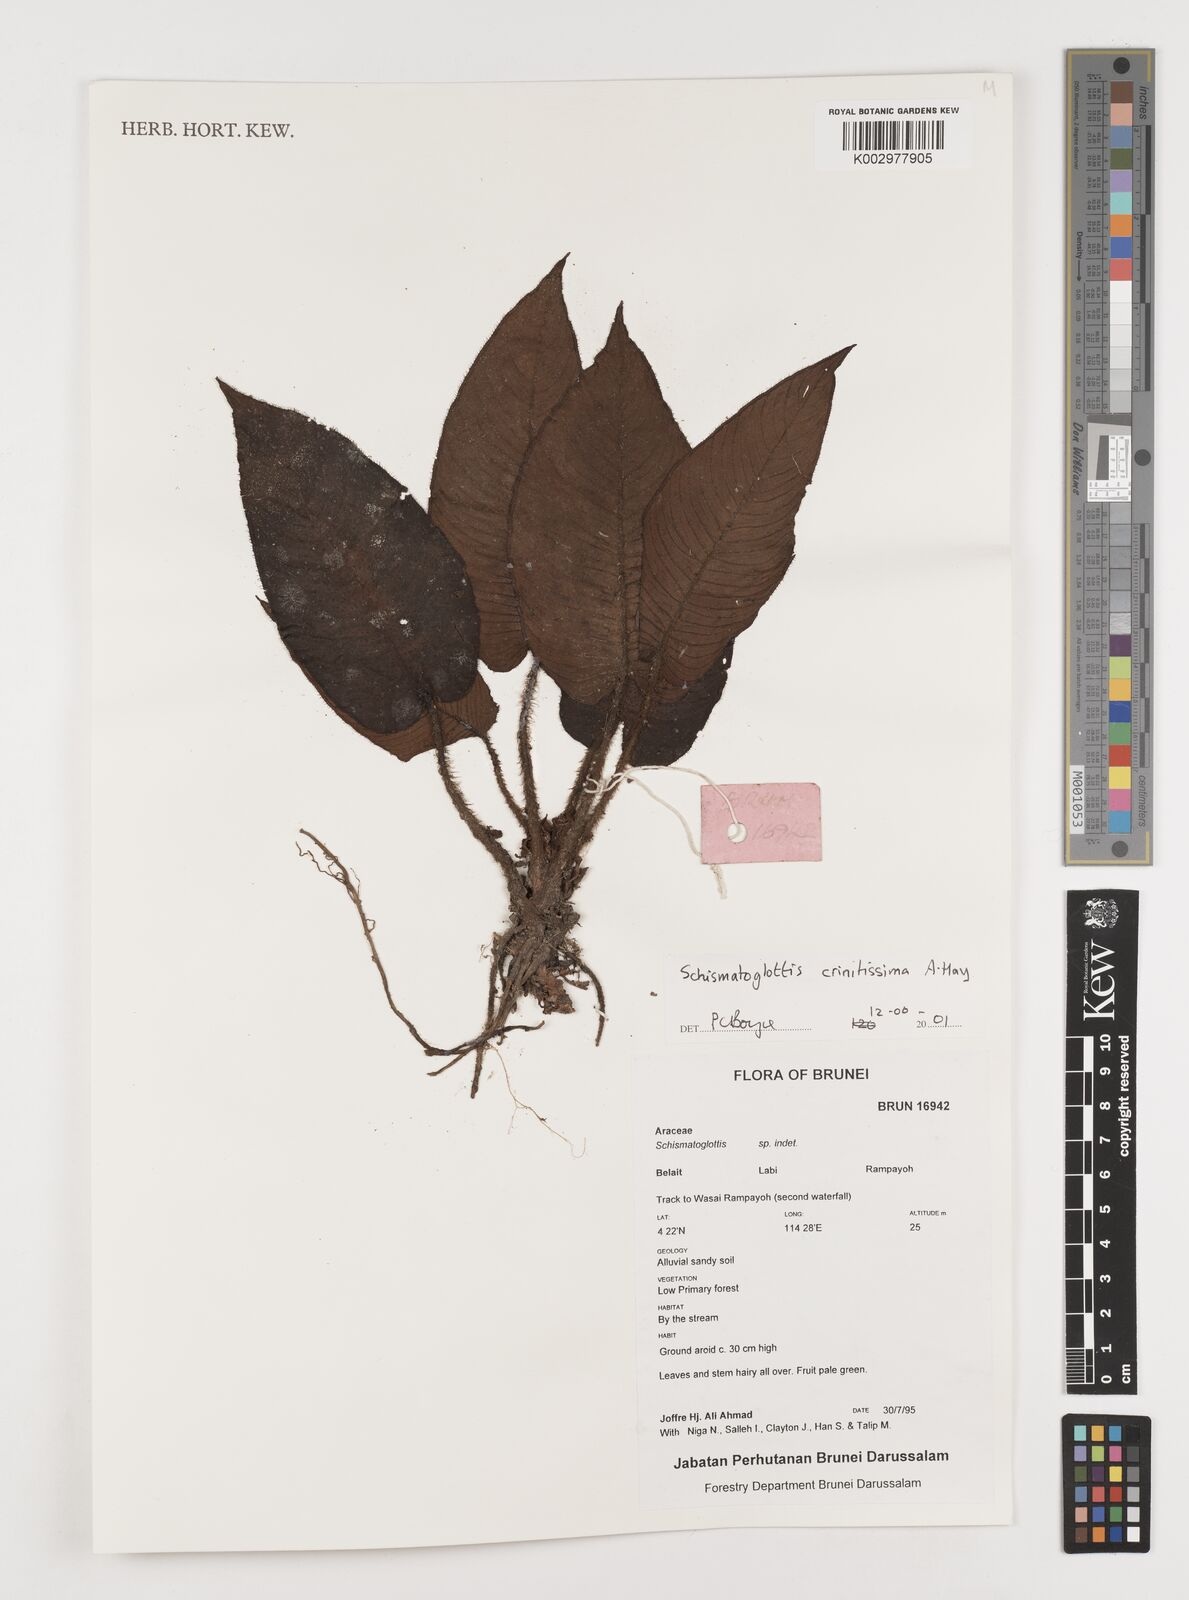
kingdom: Plantae
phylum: Tracheophyta
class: Liliopsida
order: Alismatales
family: Araceae
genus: Schismatoglottis
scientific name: Schismatoglottis crinitissima
